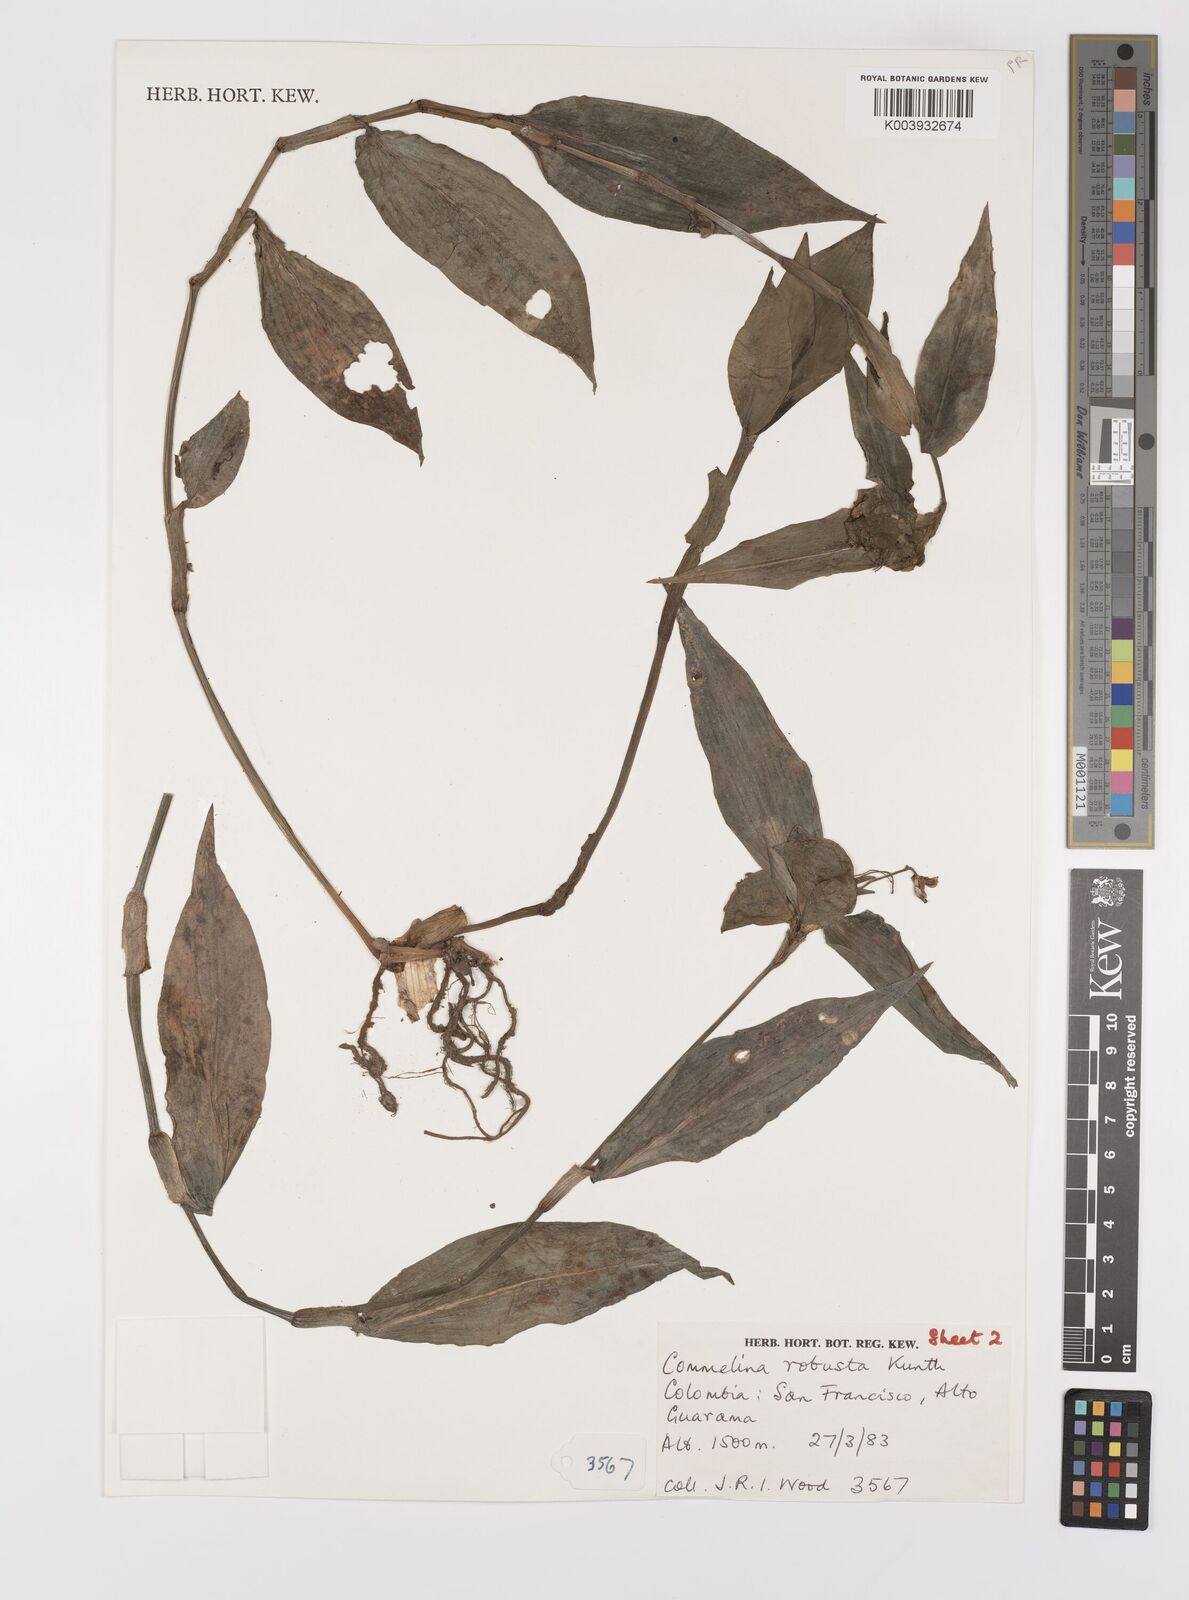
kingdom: Plantae
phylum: Tracheophyta
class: Liliopsida
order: Commelinales
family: Commelinaceae
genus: Commelina
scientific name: Commelina obliqua
